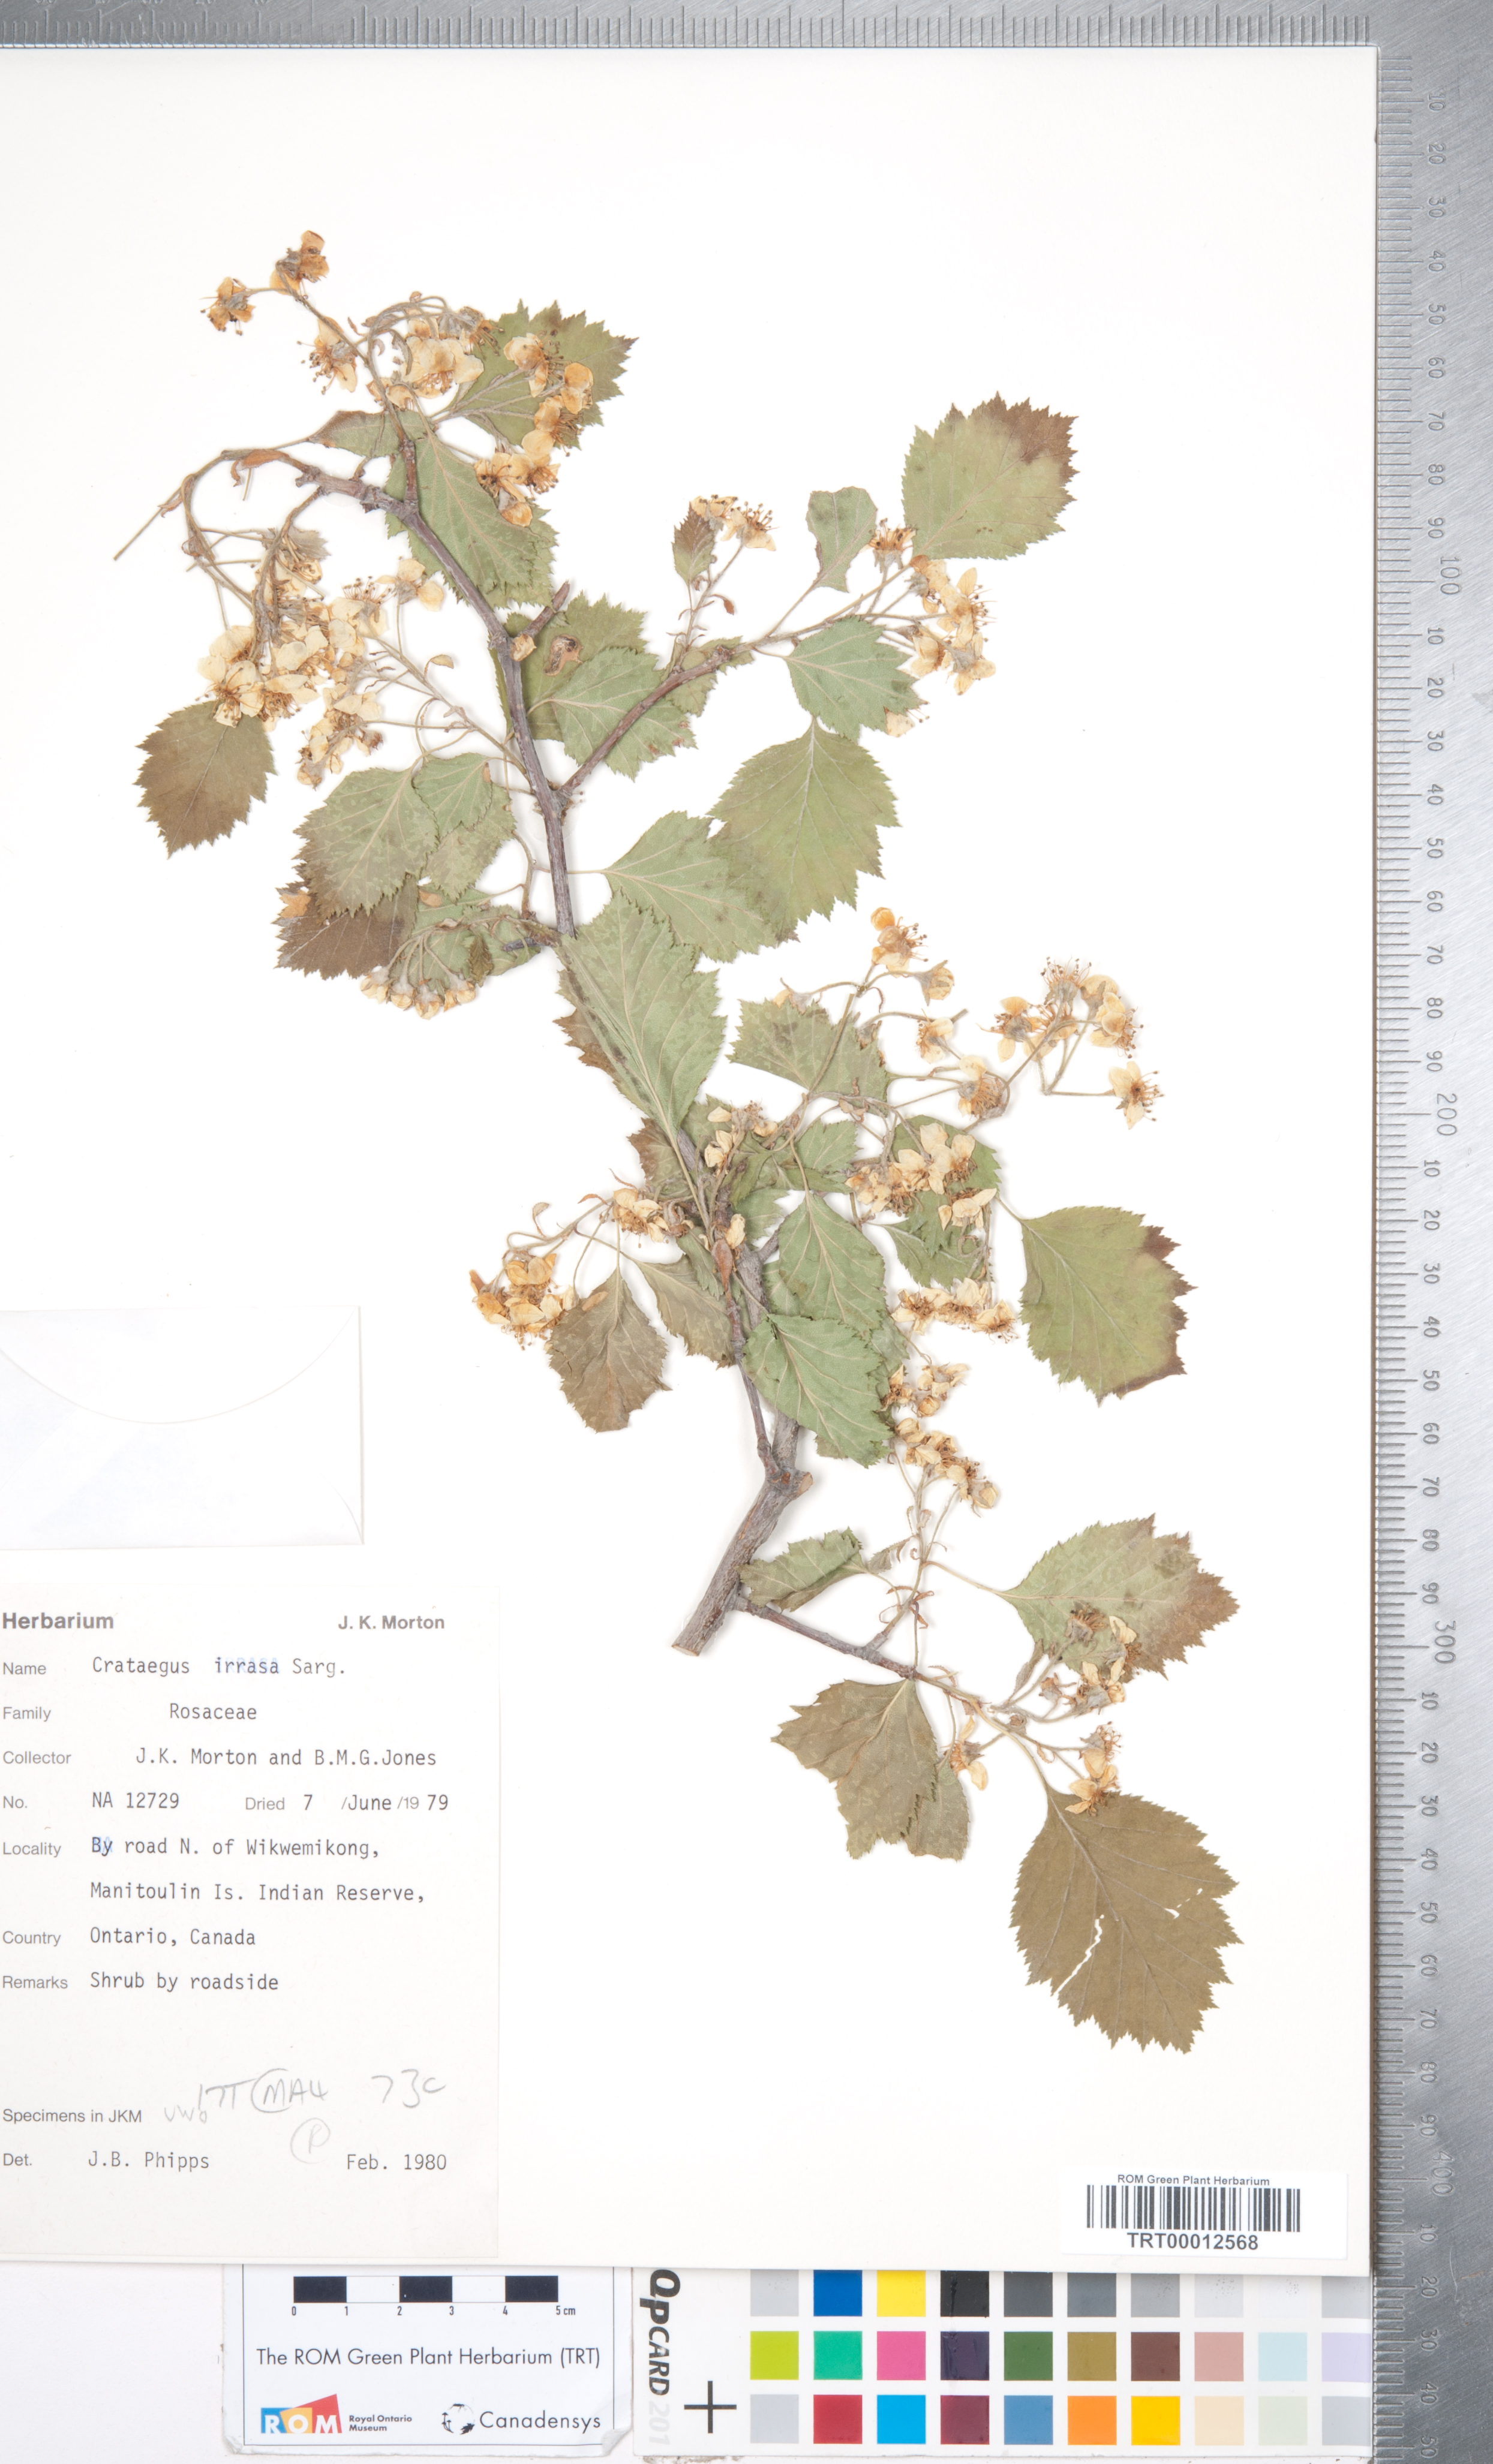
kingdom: Plantae
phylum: Tracheophyta
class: Magnoliopsida
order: Rosales
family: Rosaceae
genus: Crataegus
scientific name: Crataegus irrasa
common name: Unshorn hawthorn
